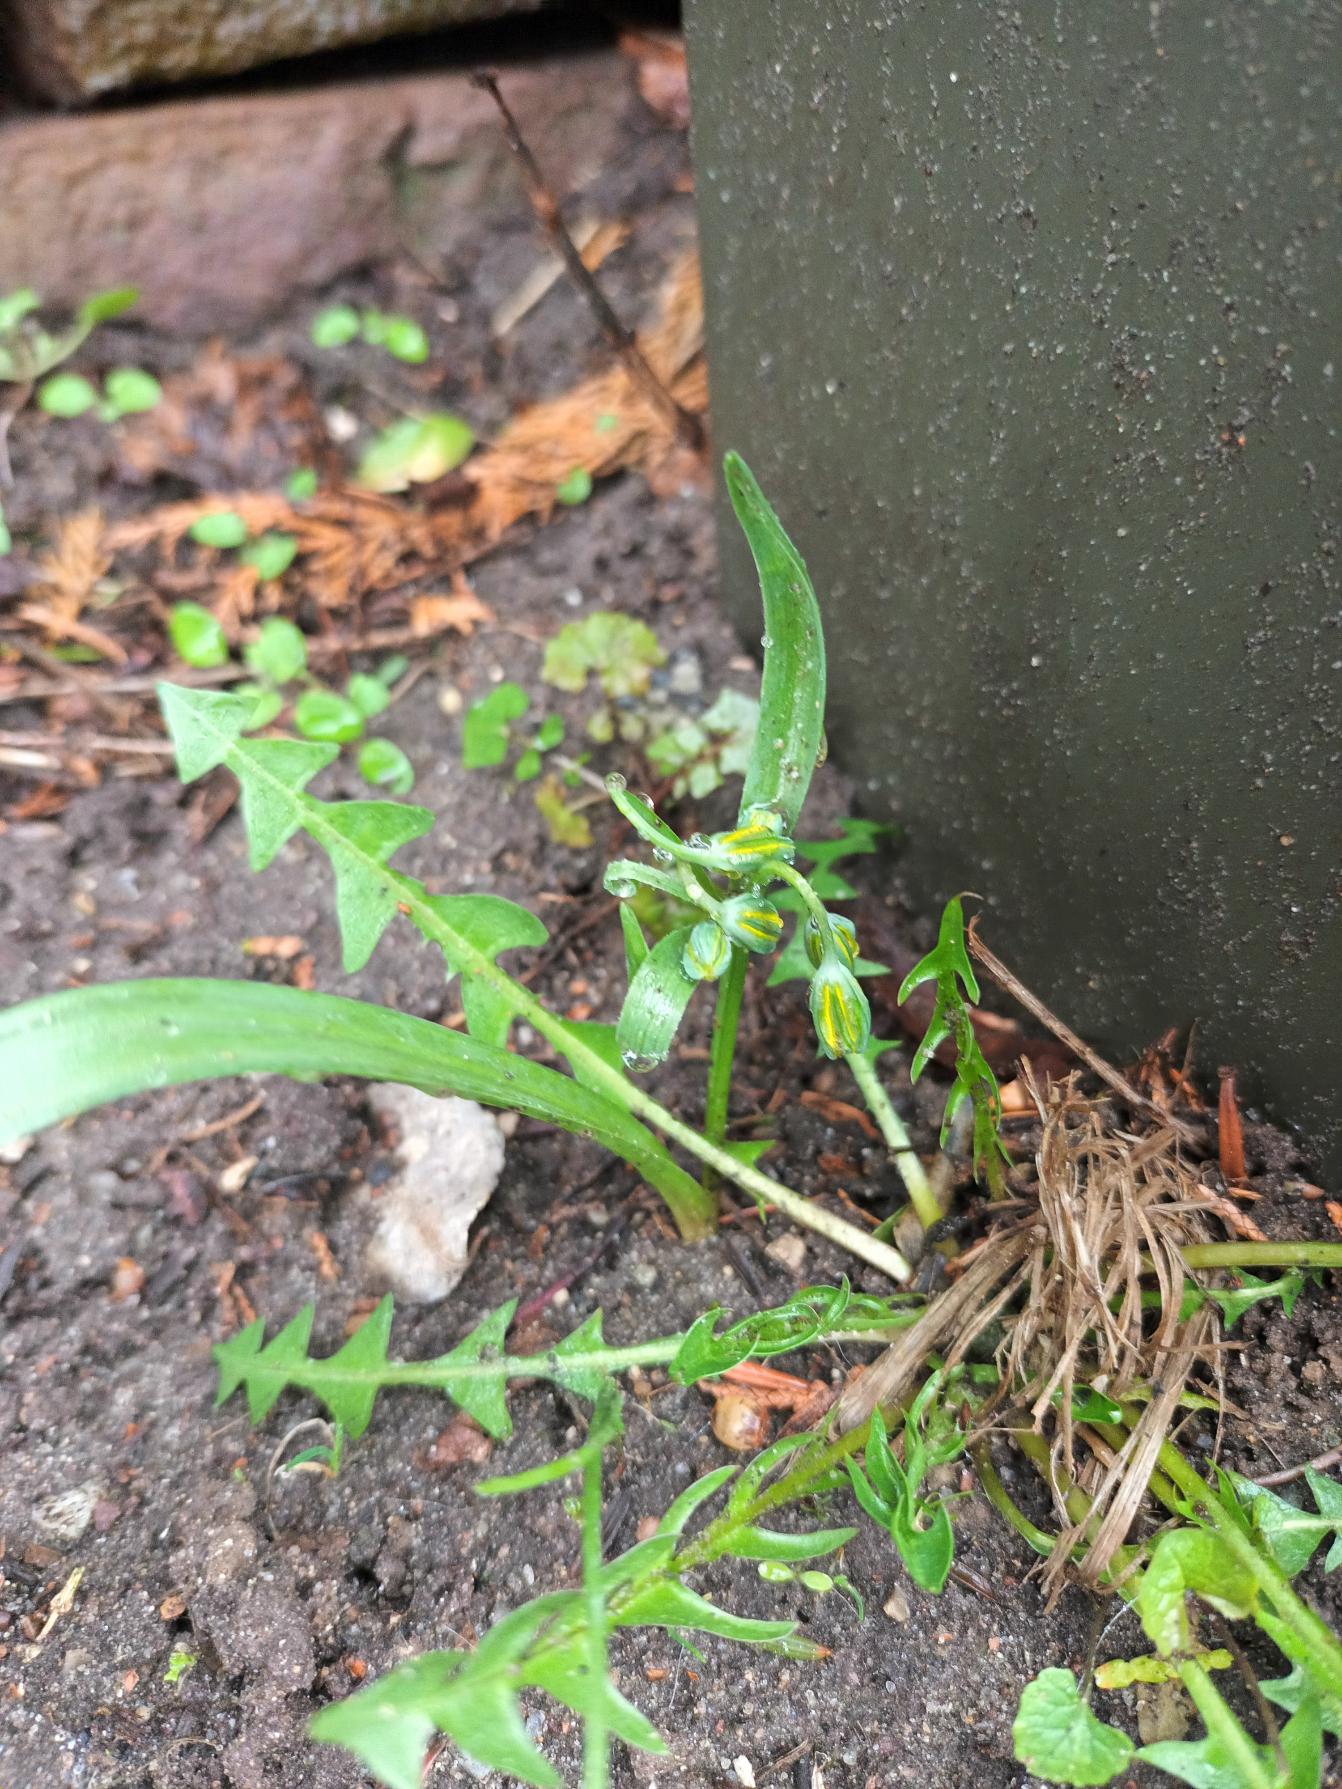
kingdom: Plantae
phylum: Tracheophyta
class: Liliopsida
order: Liliales
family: Liliaceae
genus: Gagea
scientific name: Gagea lutea
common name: Almindelig guldstjerne
